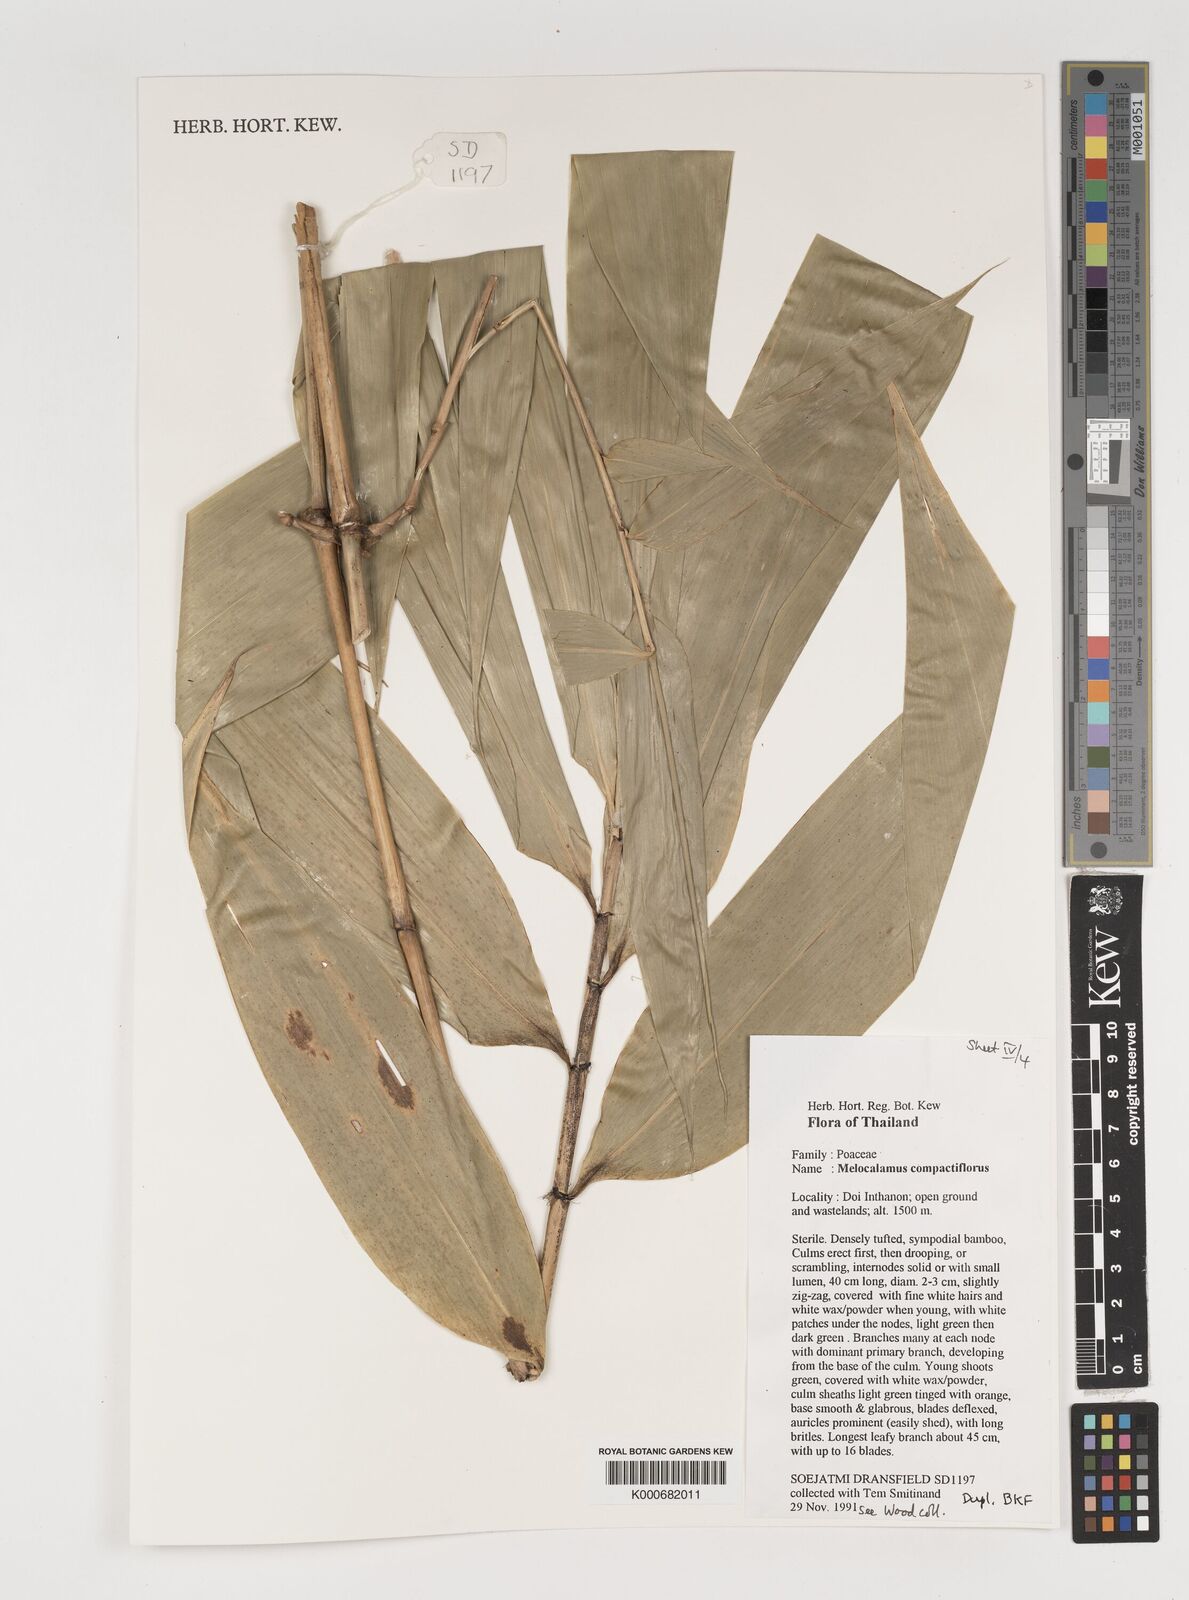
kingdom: Plantae
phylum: Tracheophyta
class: Liliopsida
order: Poales
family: Poaceae
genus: Melocalamus
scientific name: Melocalamus compactiflorus
